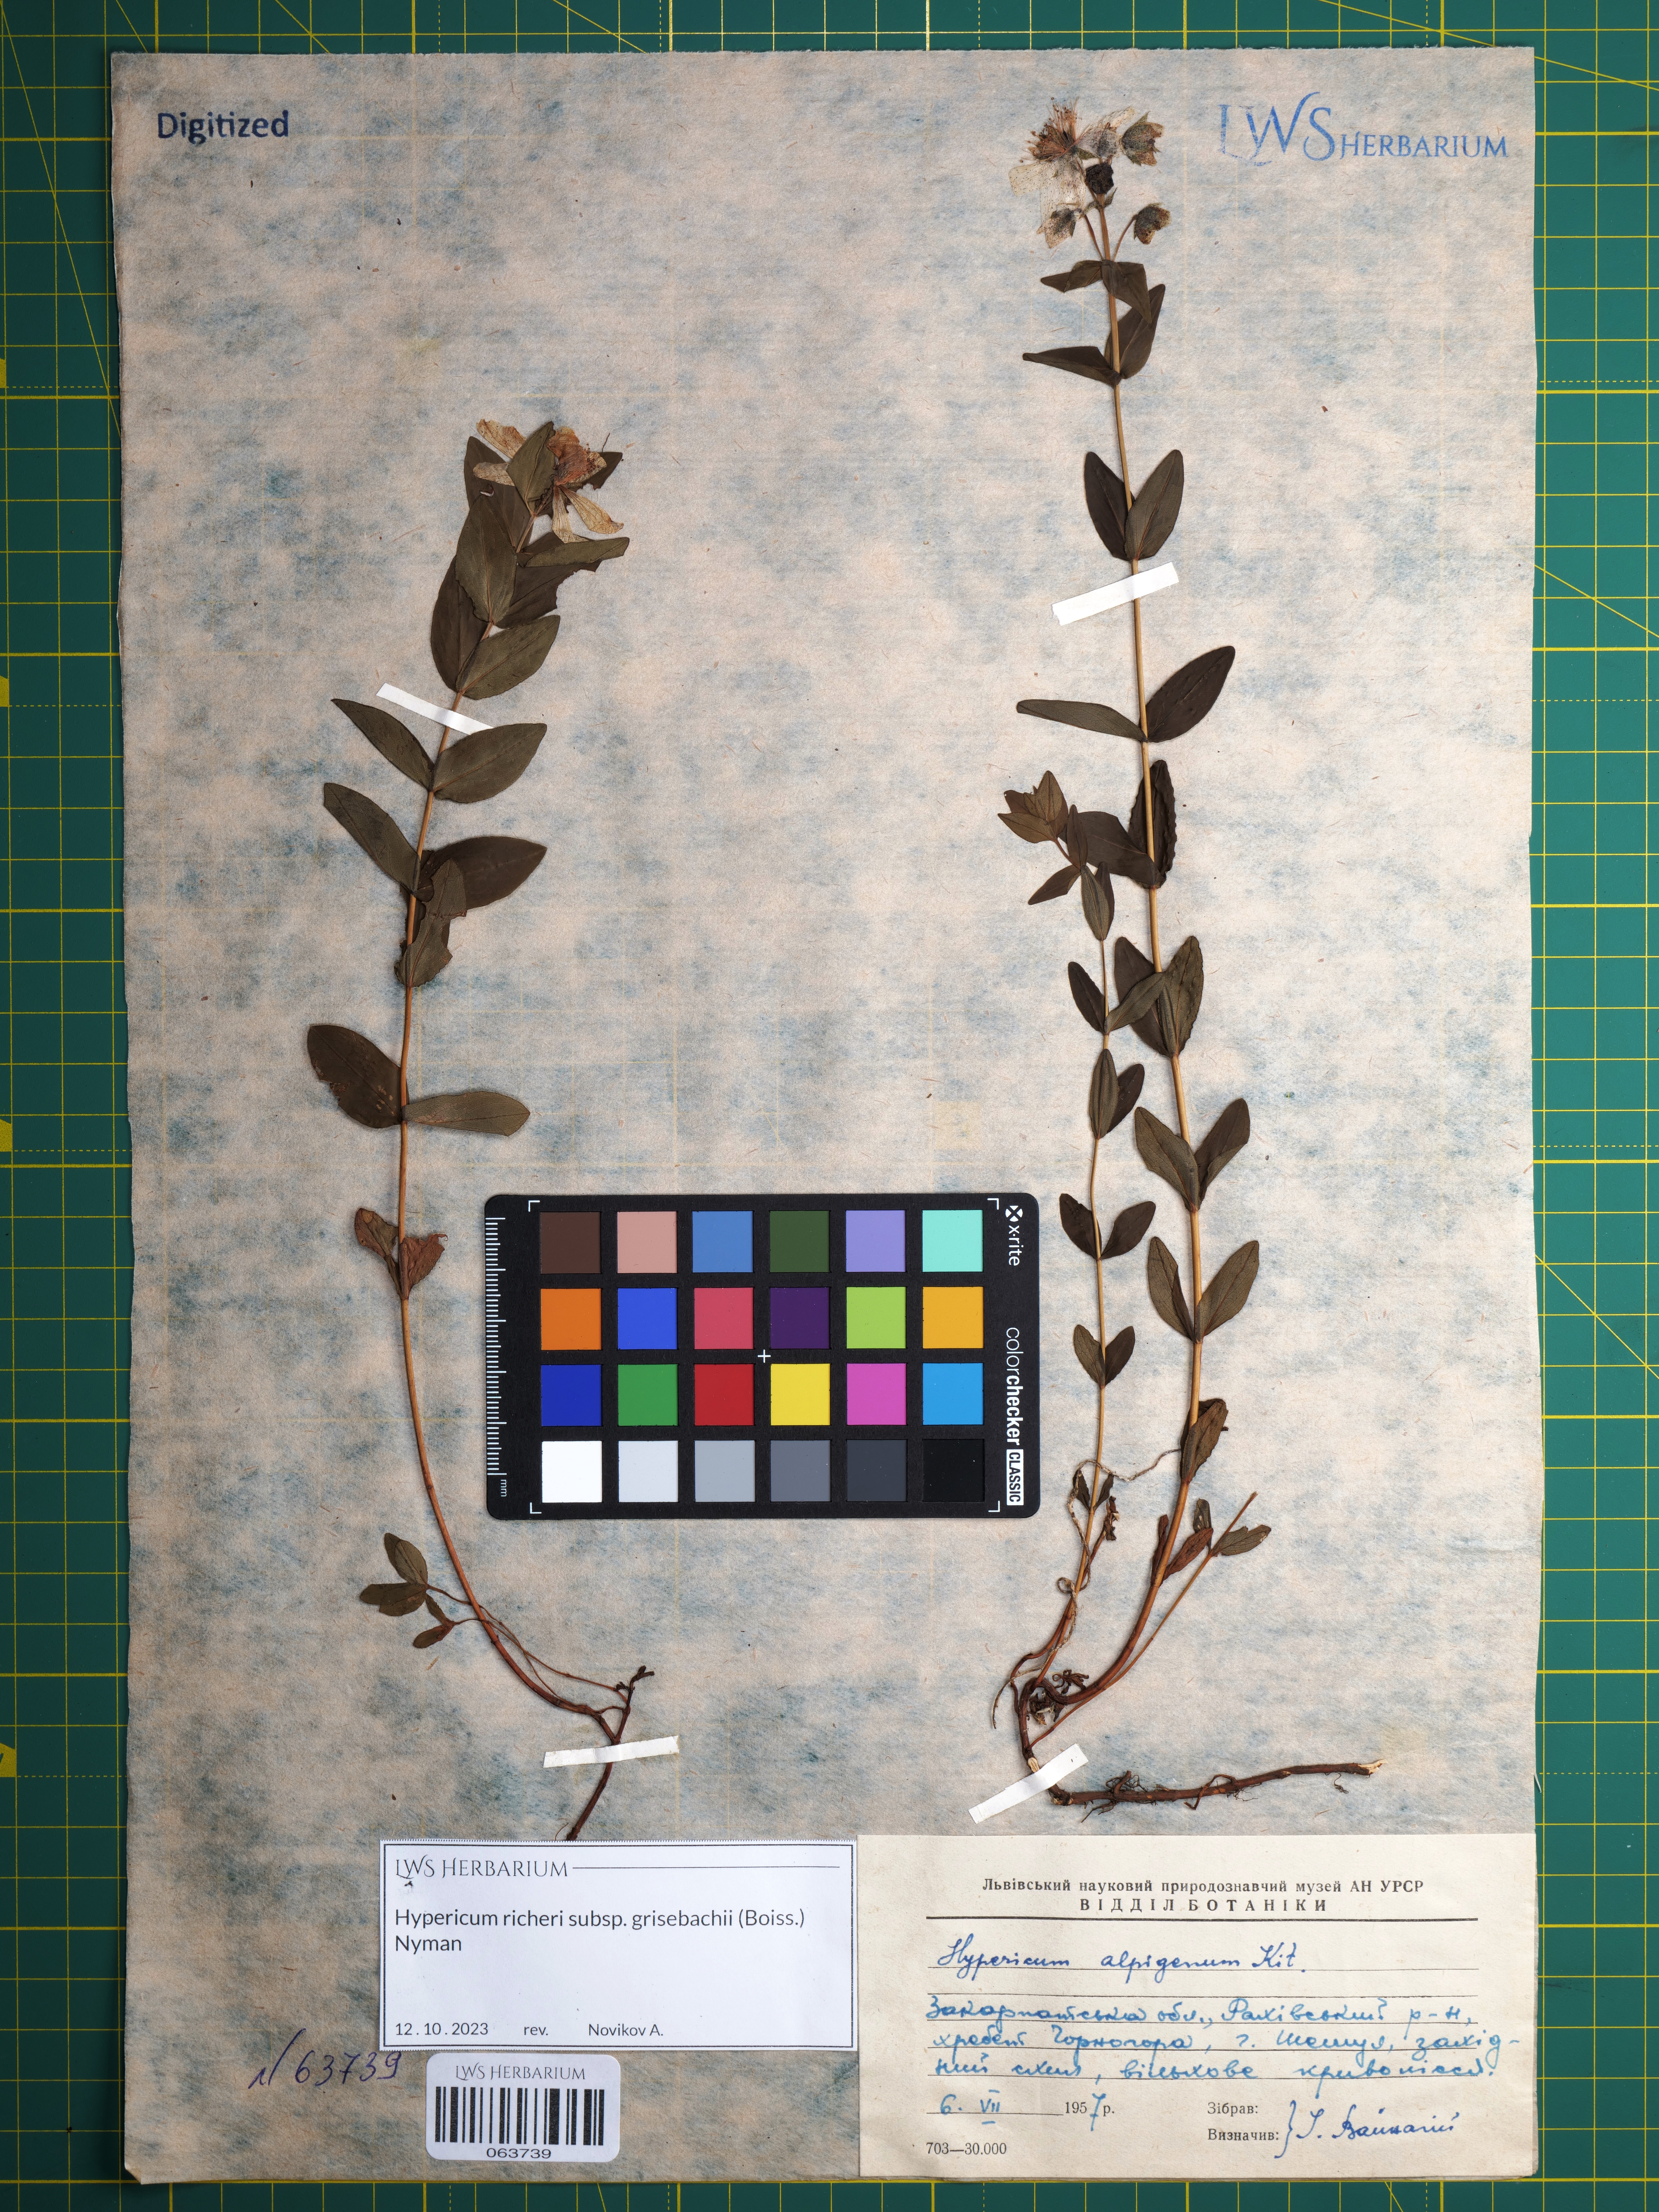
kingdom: Plantae
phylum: Tracheophyta
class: Magnoliopsida
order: Malpighiales
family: Hypericaceae
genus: Hypericum
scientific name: Hypericum richeri
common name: Alpine st john's-wort
